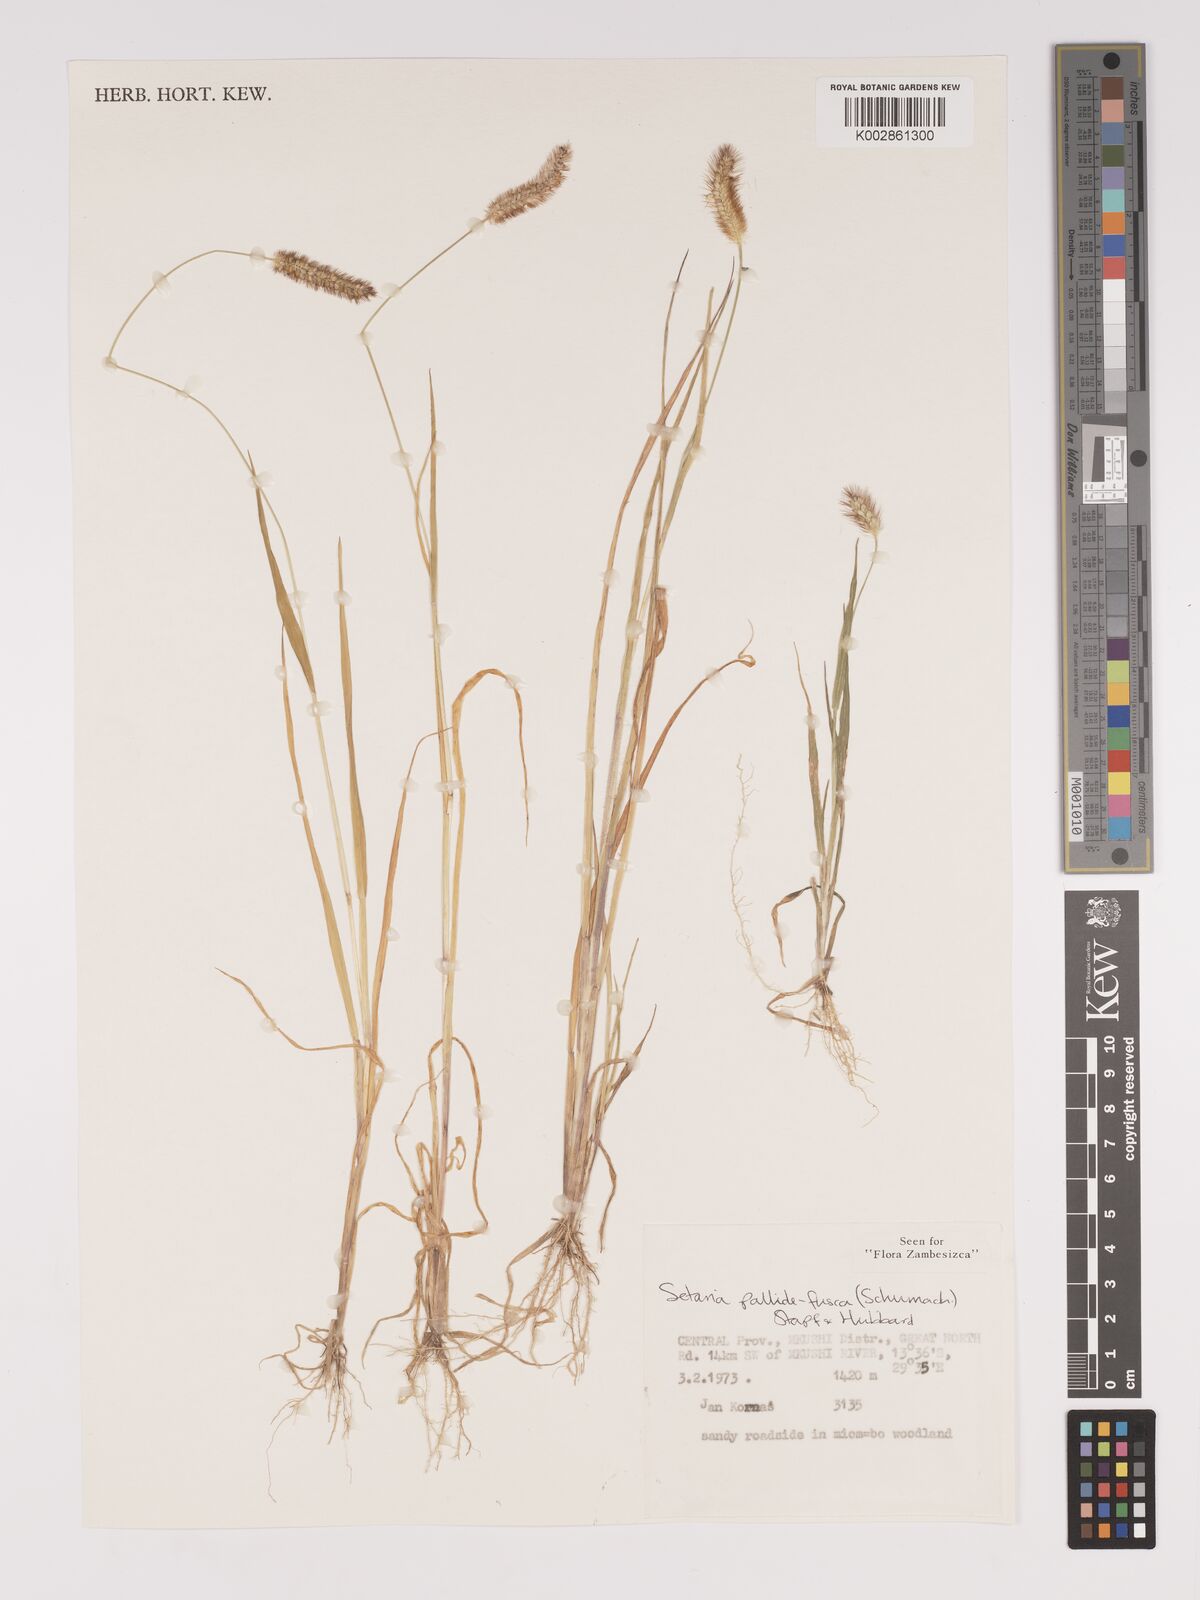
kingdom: Plantae
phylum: Tracheophyta
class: Liliopsida
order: Poales
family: Poaceae
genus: Setaria
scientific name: Setaria pumila
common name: Yellow bristle-grass
